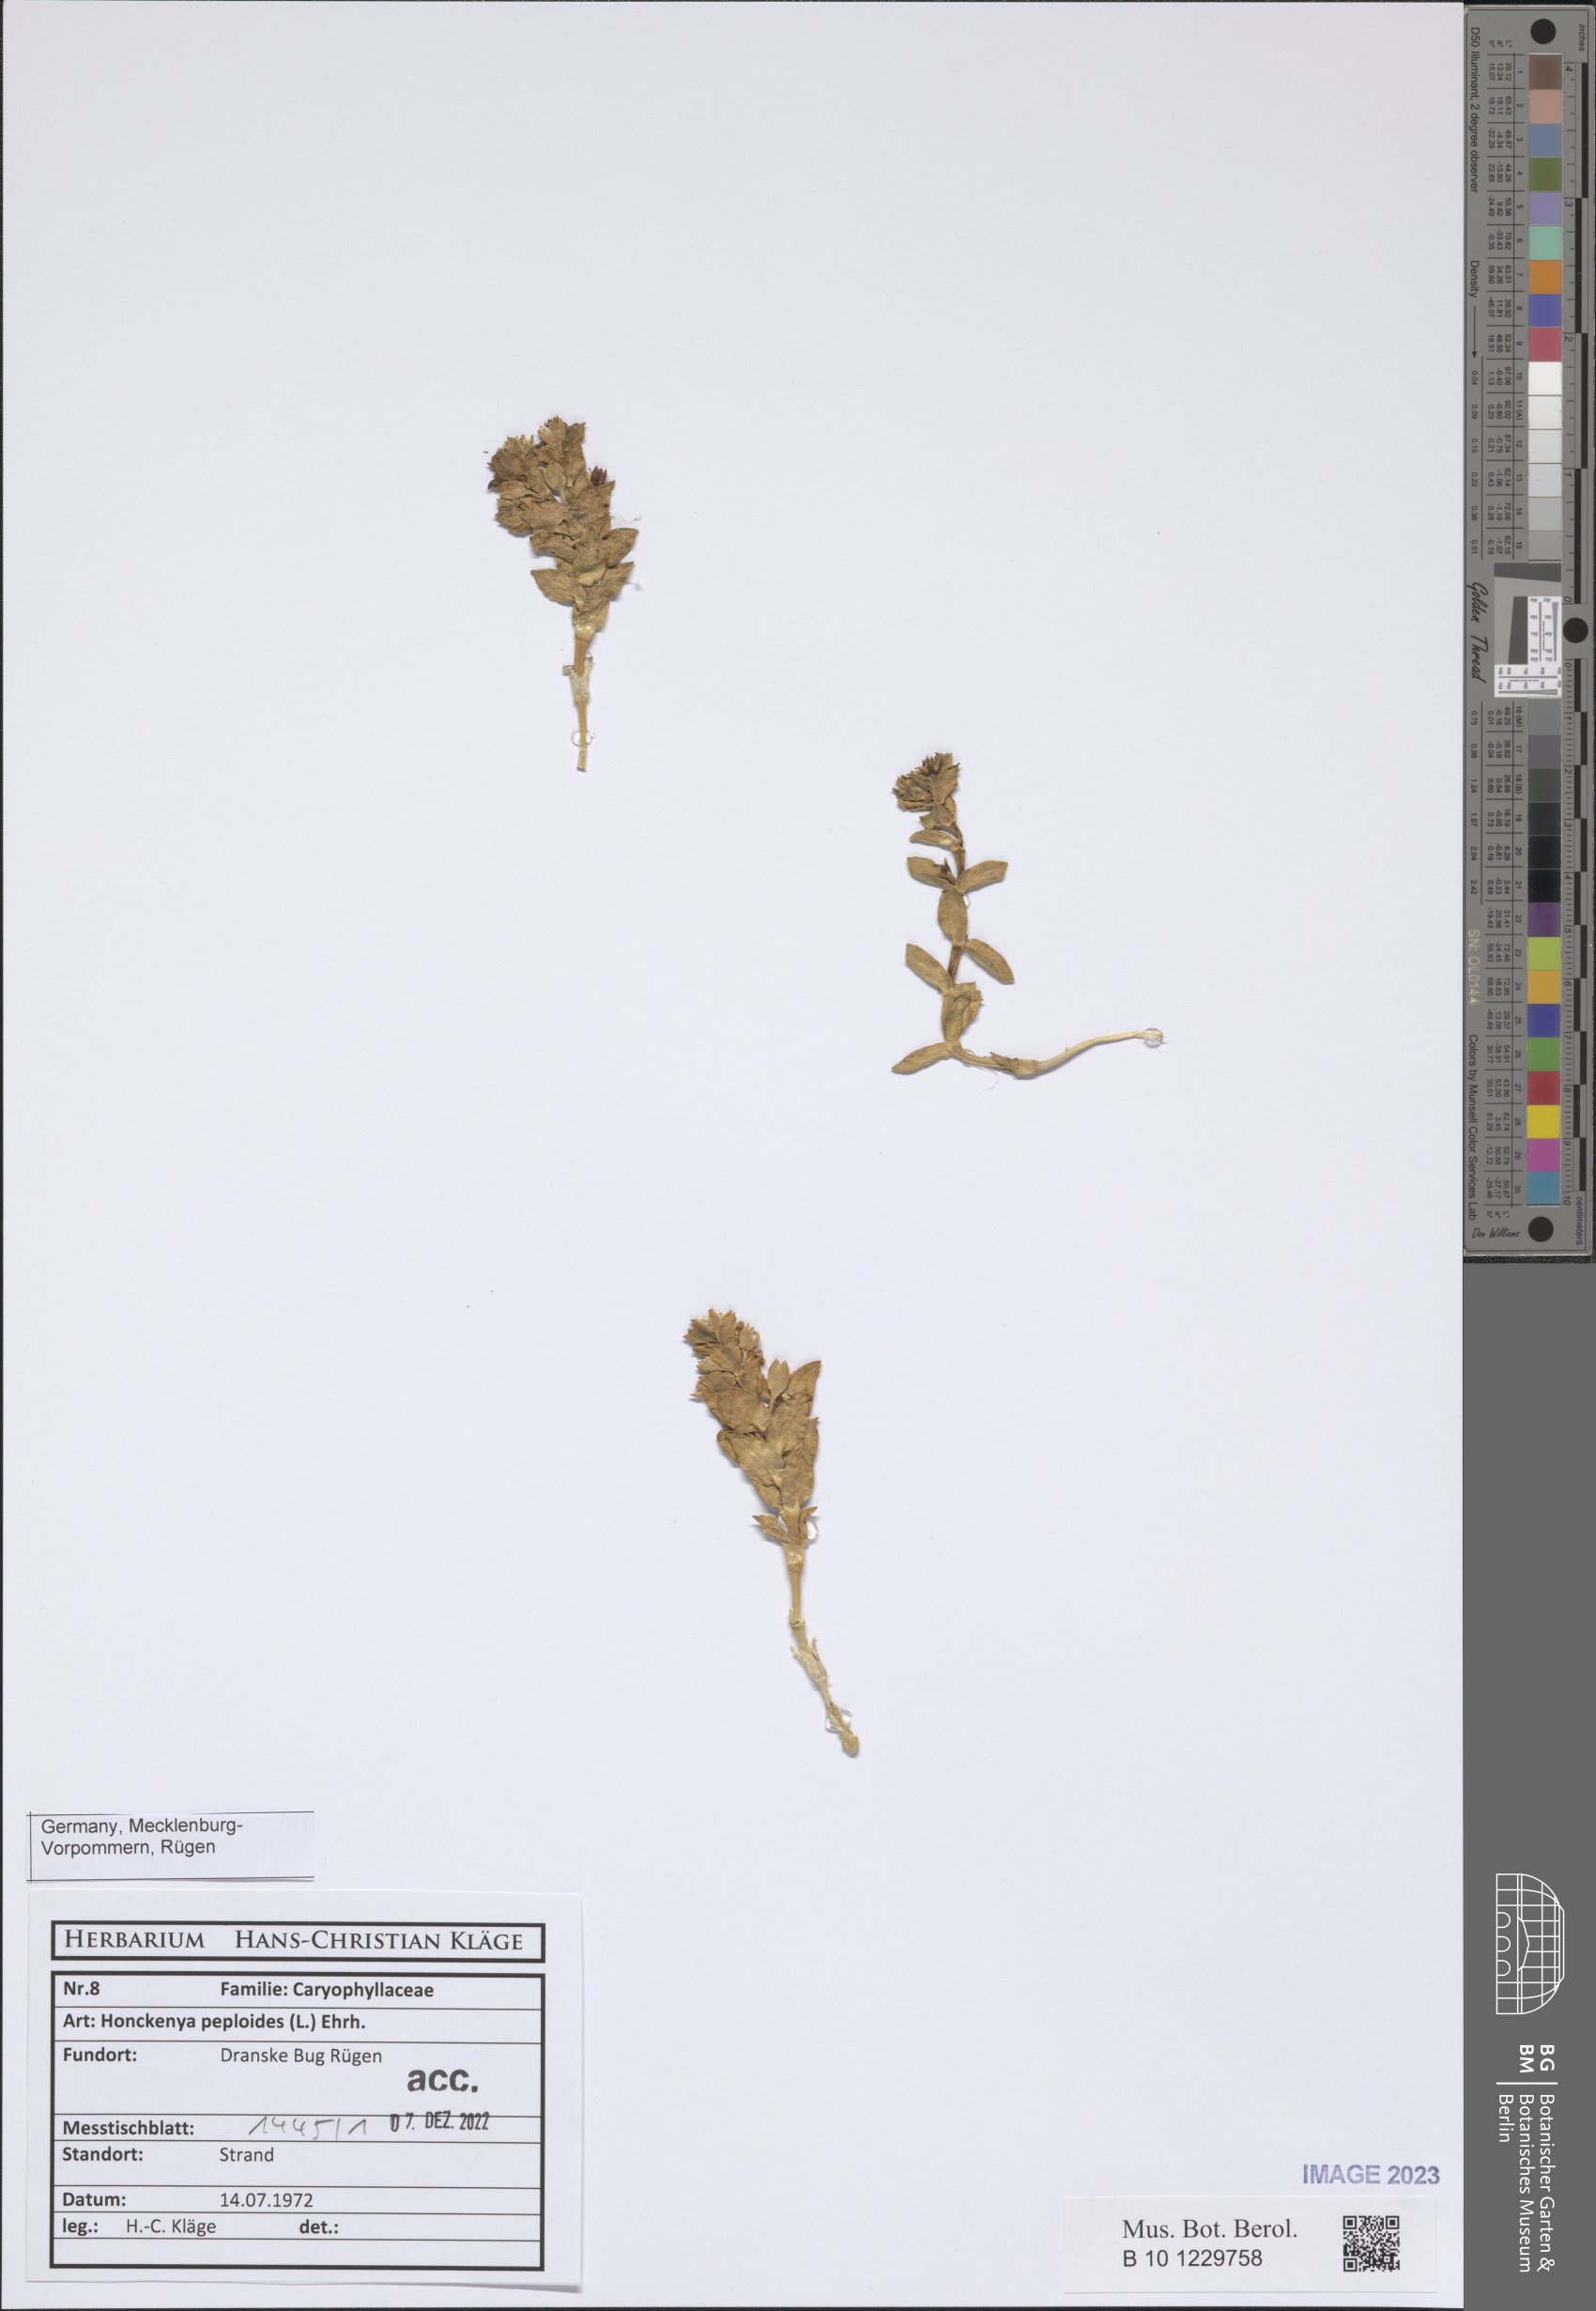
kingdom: Plantae
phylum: Tracheophyta
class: Magnoliopsida
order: Caryophyllales
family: Caryophyllaceae
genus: Honckenya
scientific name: Honckenya peploides
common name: Sea sandwort
